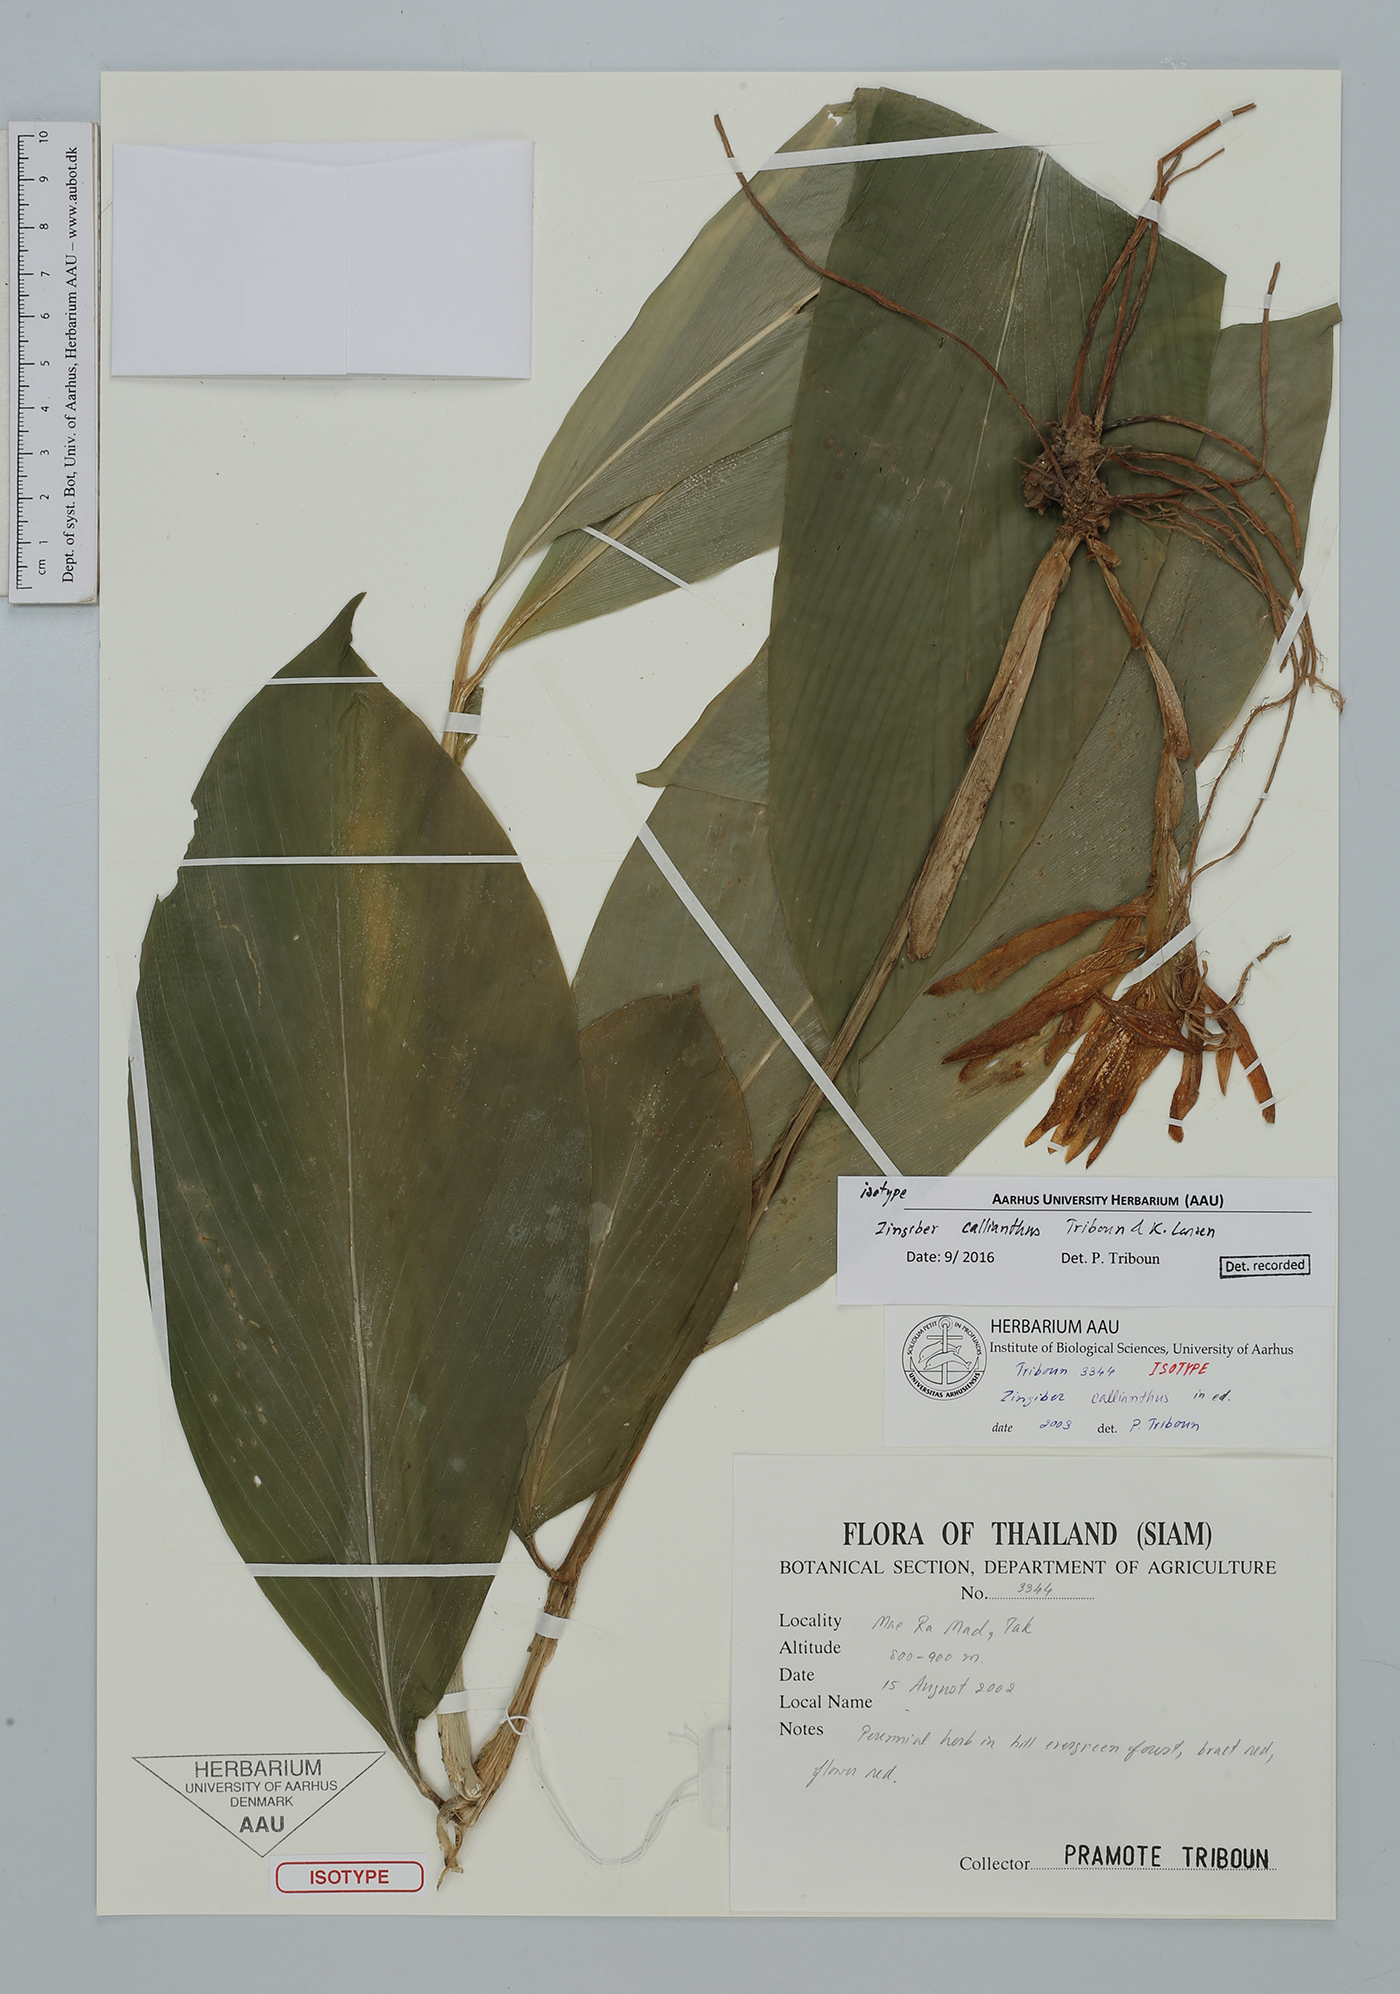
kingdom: Plantae
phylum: Tracheophyta
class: Liliopsida
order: Zingiberales
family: Zingiberaceae
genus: Zingiber
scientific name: Zingiber callianthum
